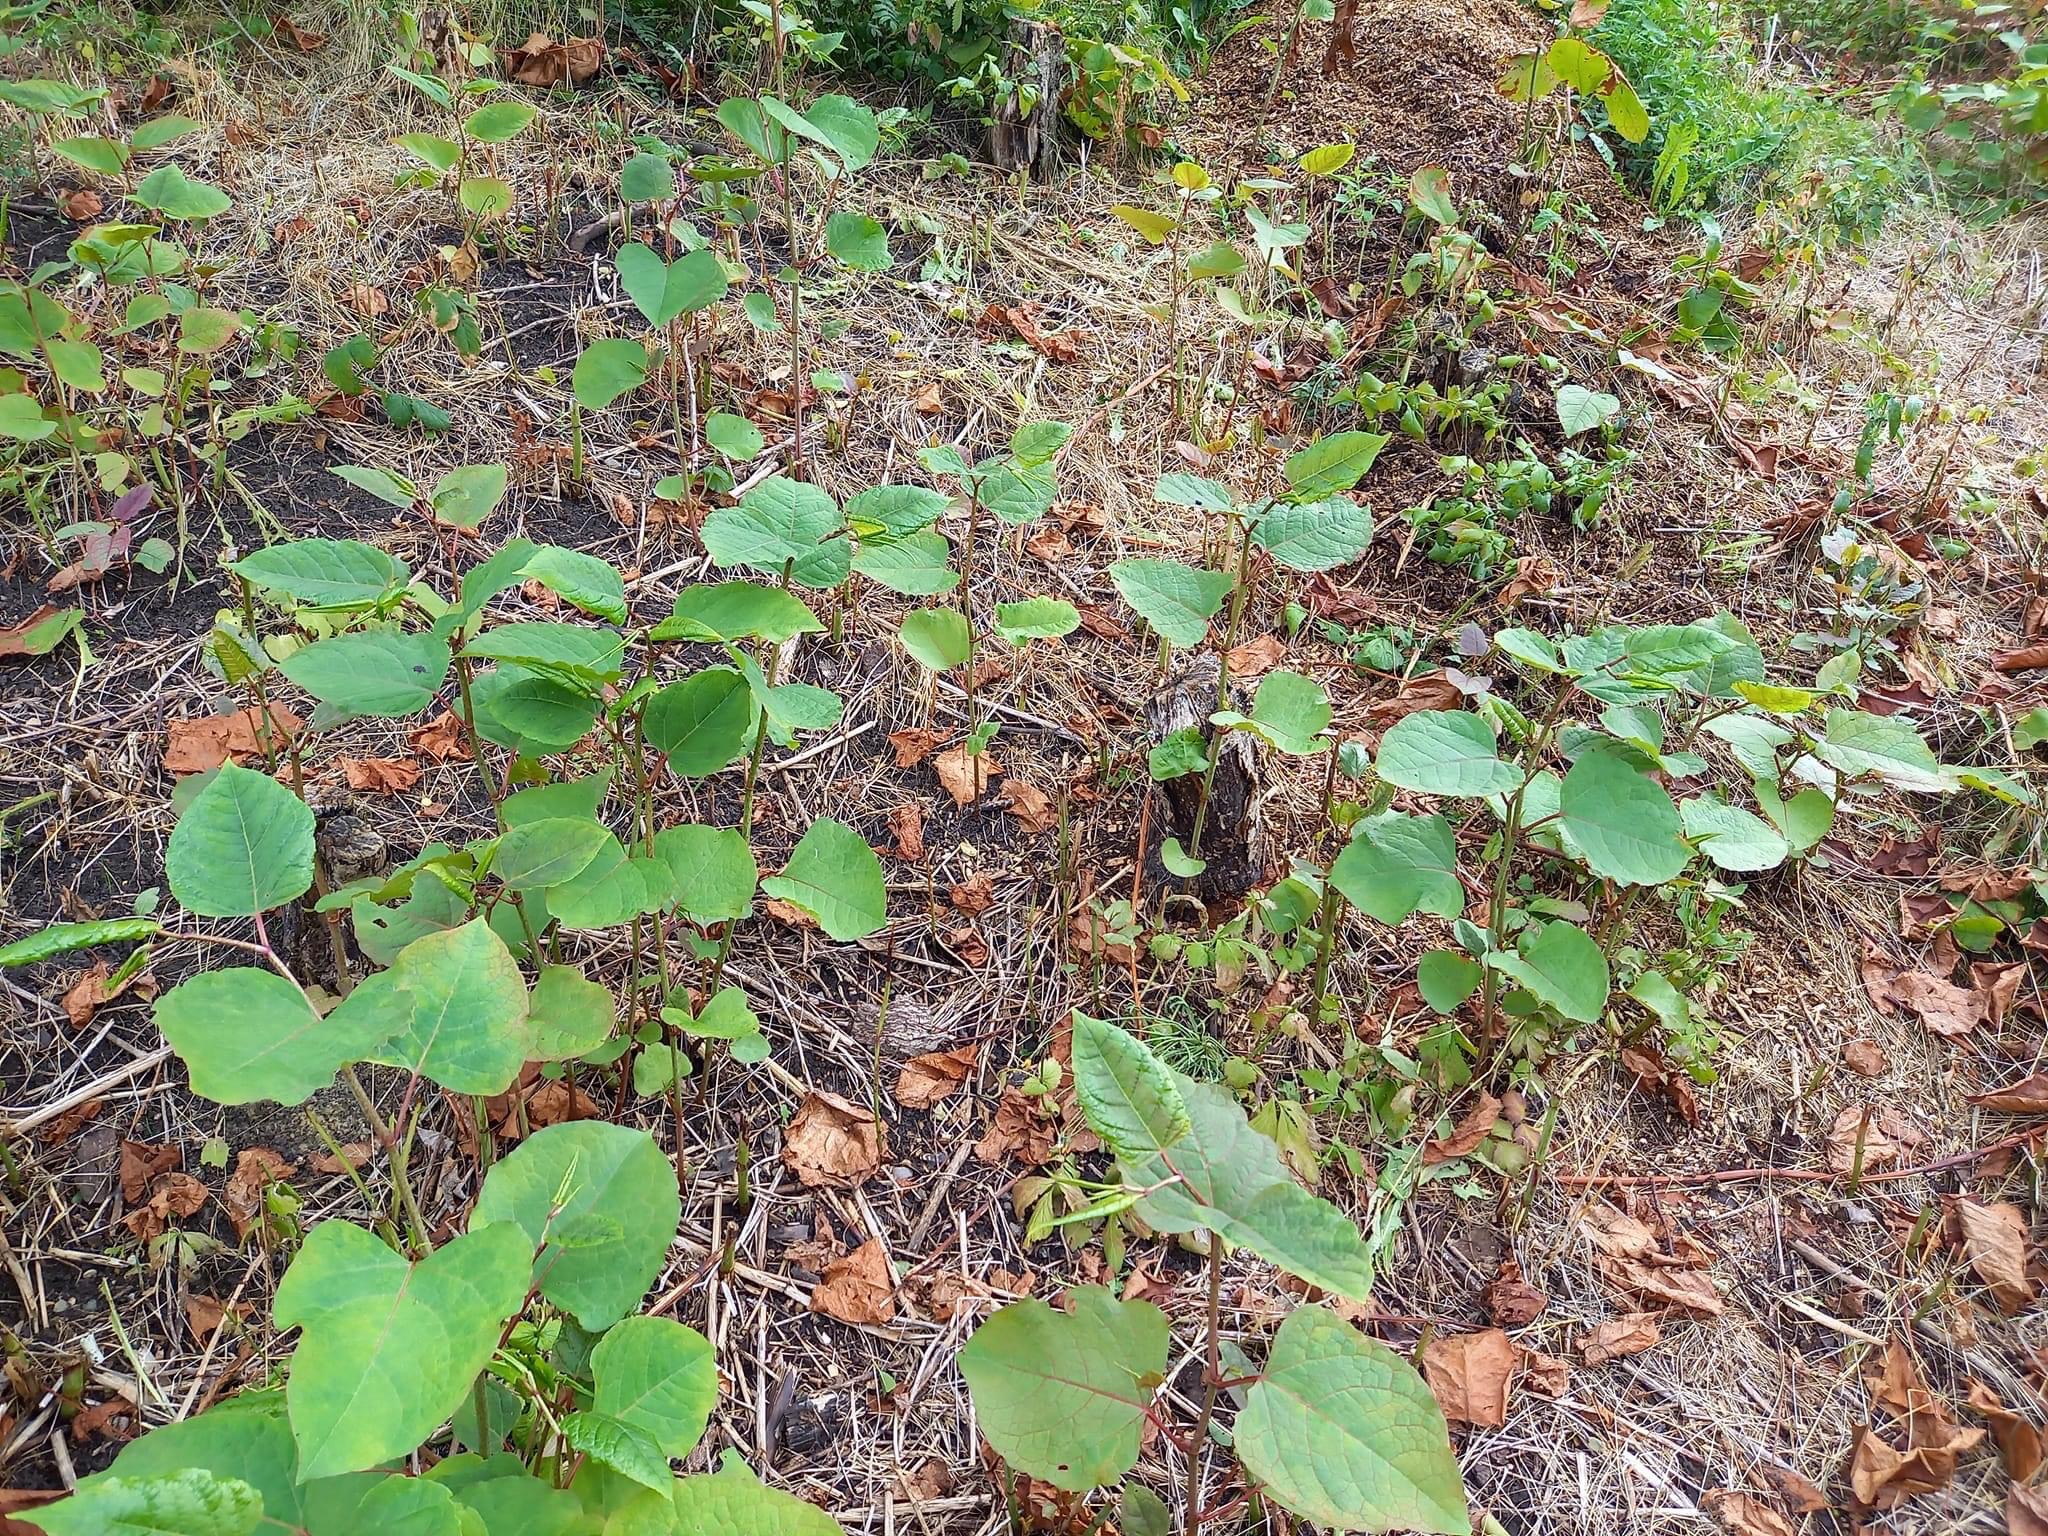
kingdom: Plantae
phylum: Tracheophyta
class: Magnoliopsida
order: Caryophyllales
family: Polygonaceae
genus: Reynoutria
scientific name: Reynoutria japonica
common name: Japan-pileurt
